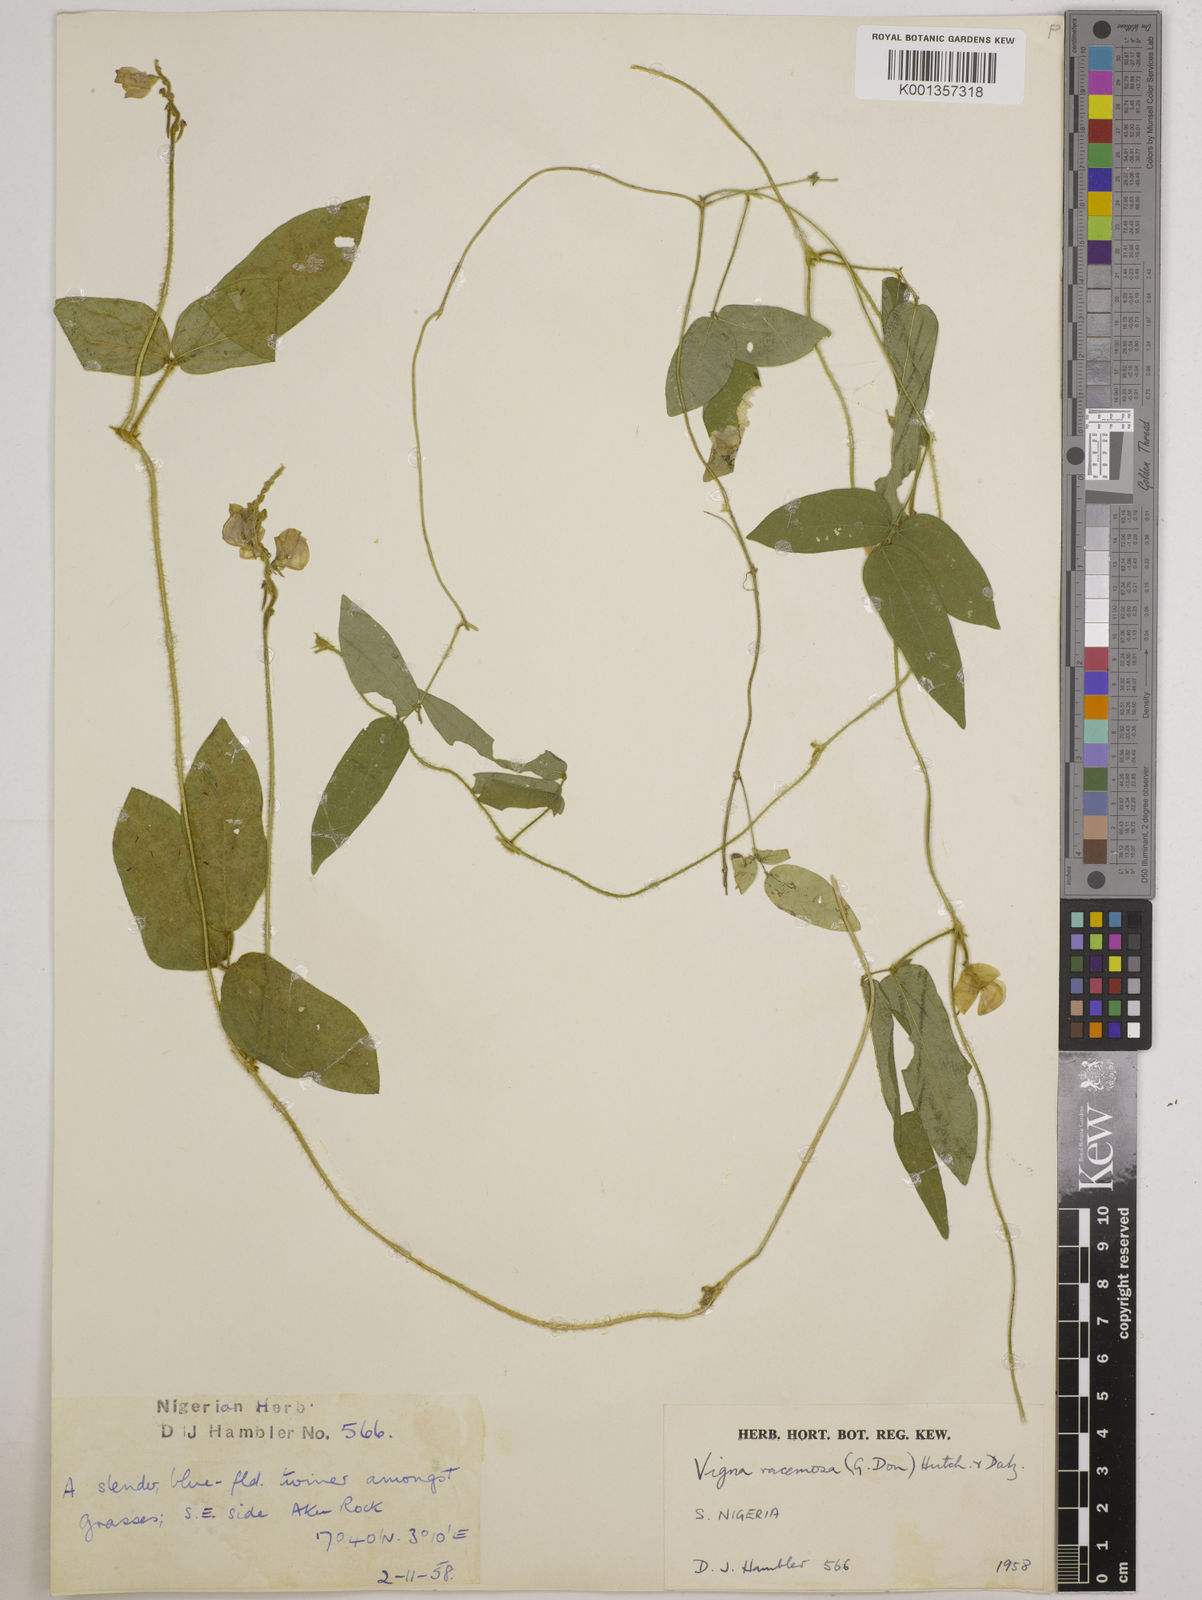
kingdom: Plantae
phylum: Tracheophyta
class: Magnoliopsida
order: Fabales
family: Fabaceae
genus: Vigna
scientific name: Vigna racemosa
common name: Beans not eaten
